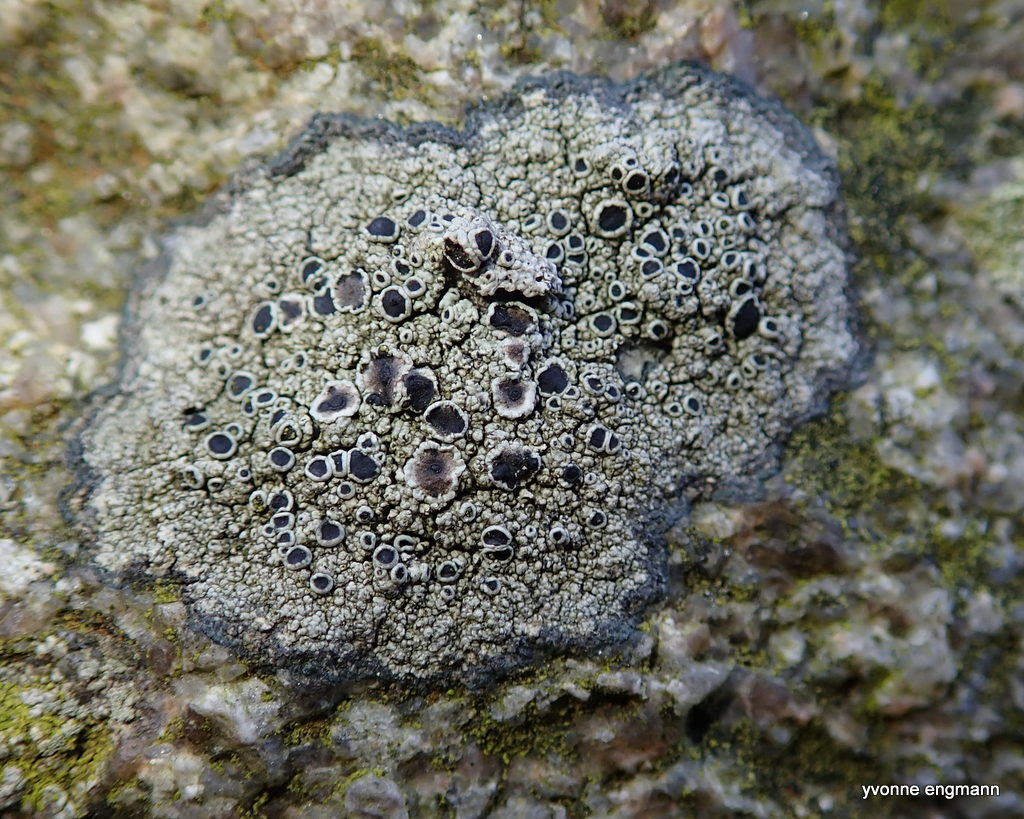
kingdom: Fungi
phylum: Ascomycota
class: Lecanoromycetes
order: Lecanorales
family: Tephromelataceae
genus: Tephromela
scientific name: Tephromela atra
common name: sortfrugtet kantskivelav
